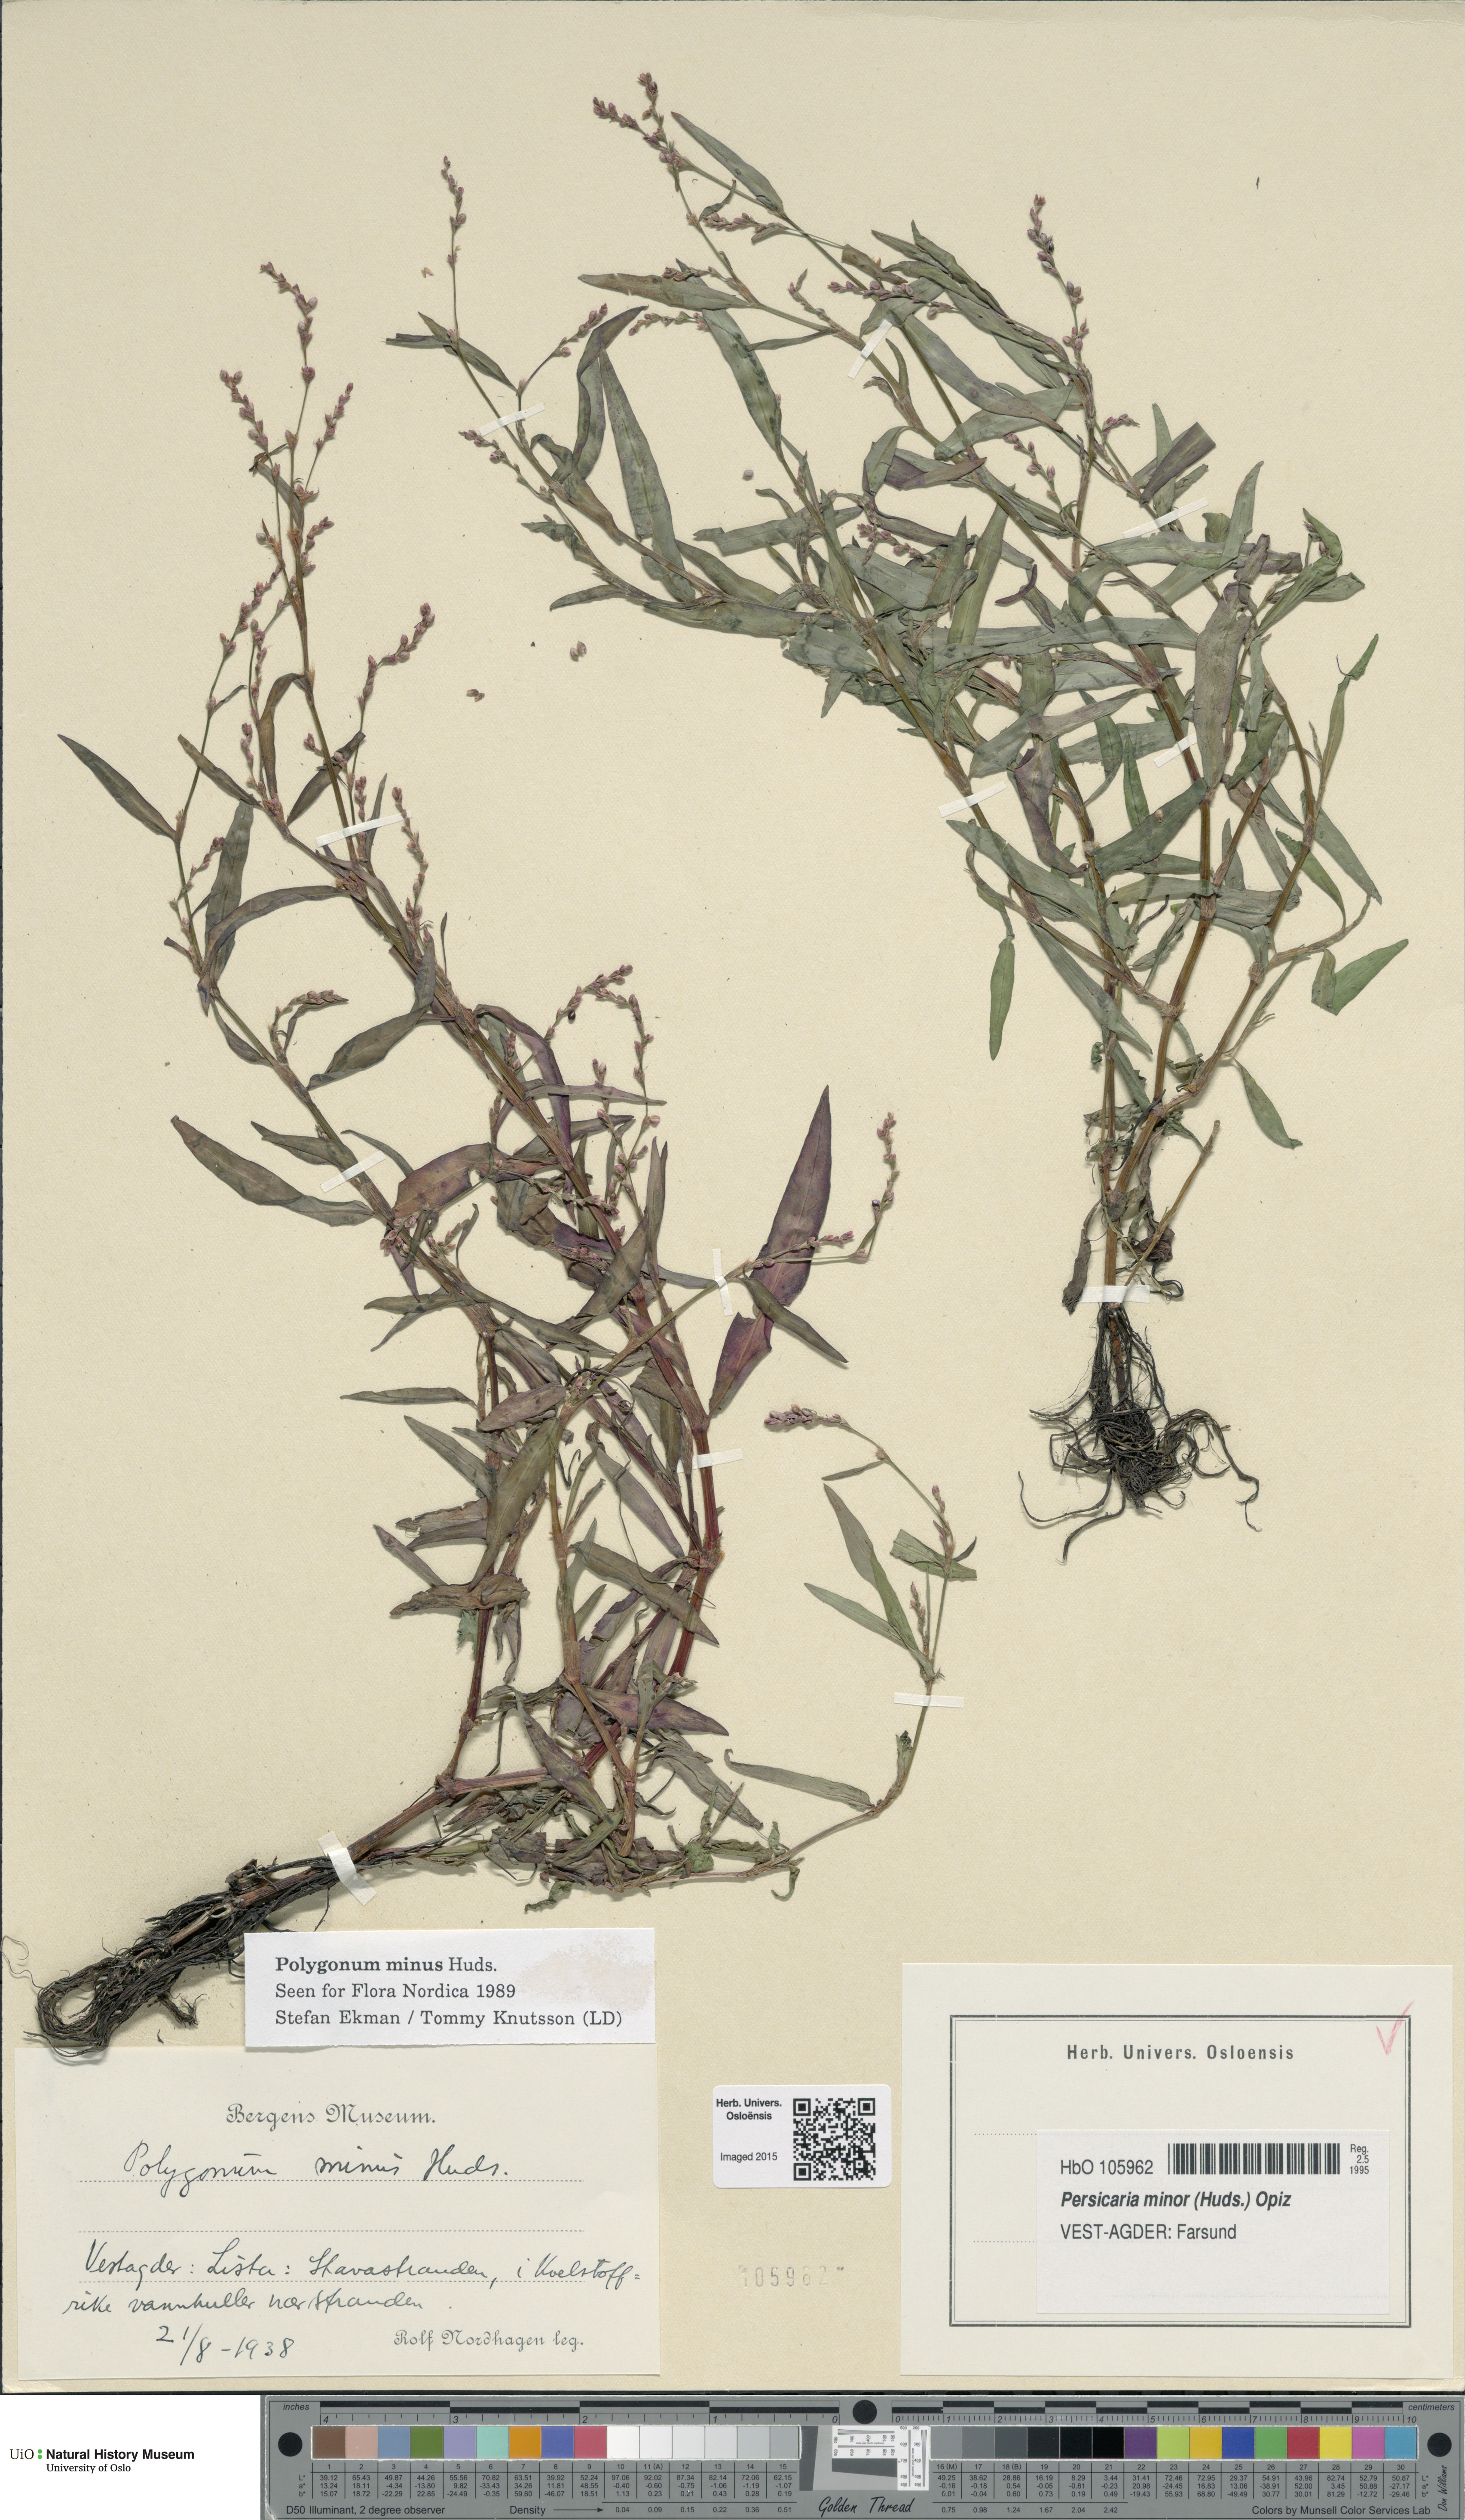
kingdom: Plantae
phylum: Tracheophyta
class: Magnoliopsida
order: Caryophyllales
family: Polygonaceae
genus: Persicaria
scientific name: Persicaria minor
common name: Small water-pepper
